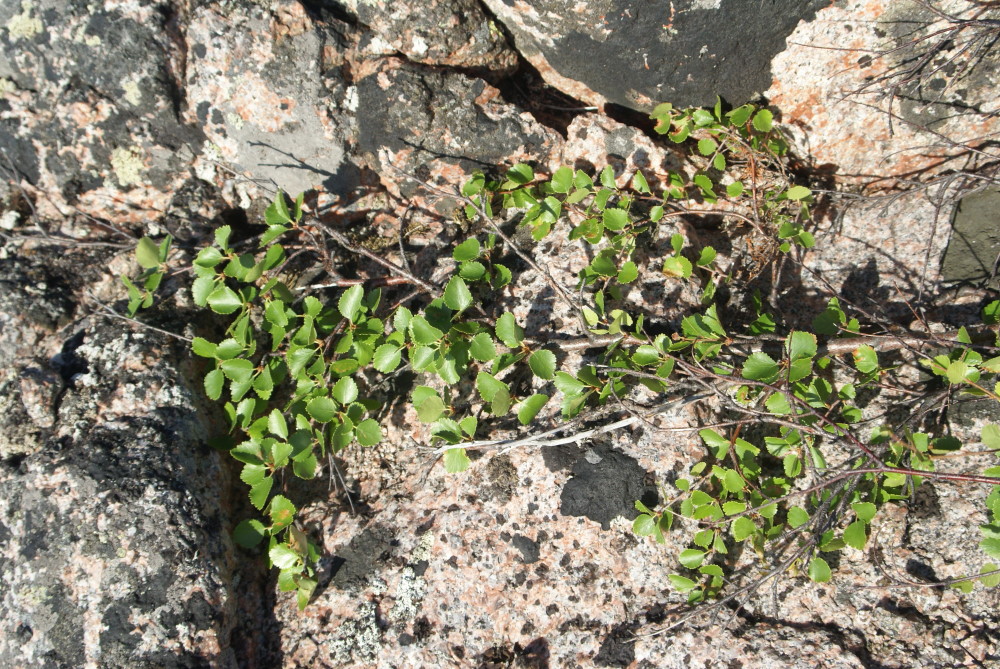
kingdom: Plantae
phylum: Tracheophyta
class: Magnoliopsida
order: Fagales
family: Betulaceae
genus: Betula
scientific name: Betula nana
